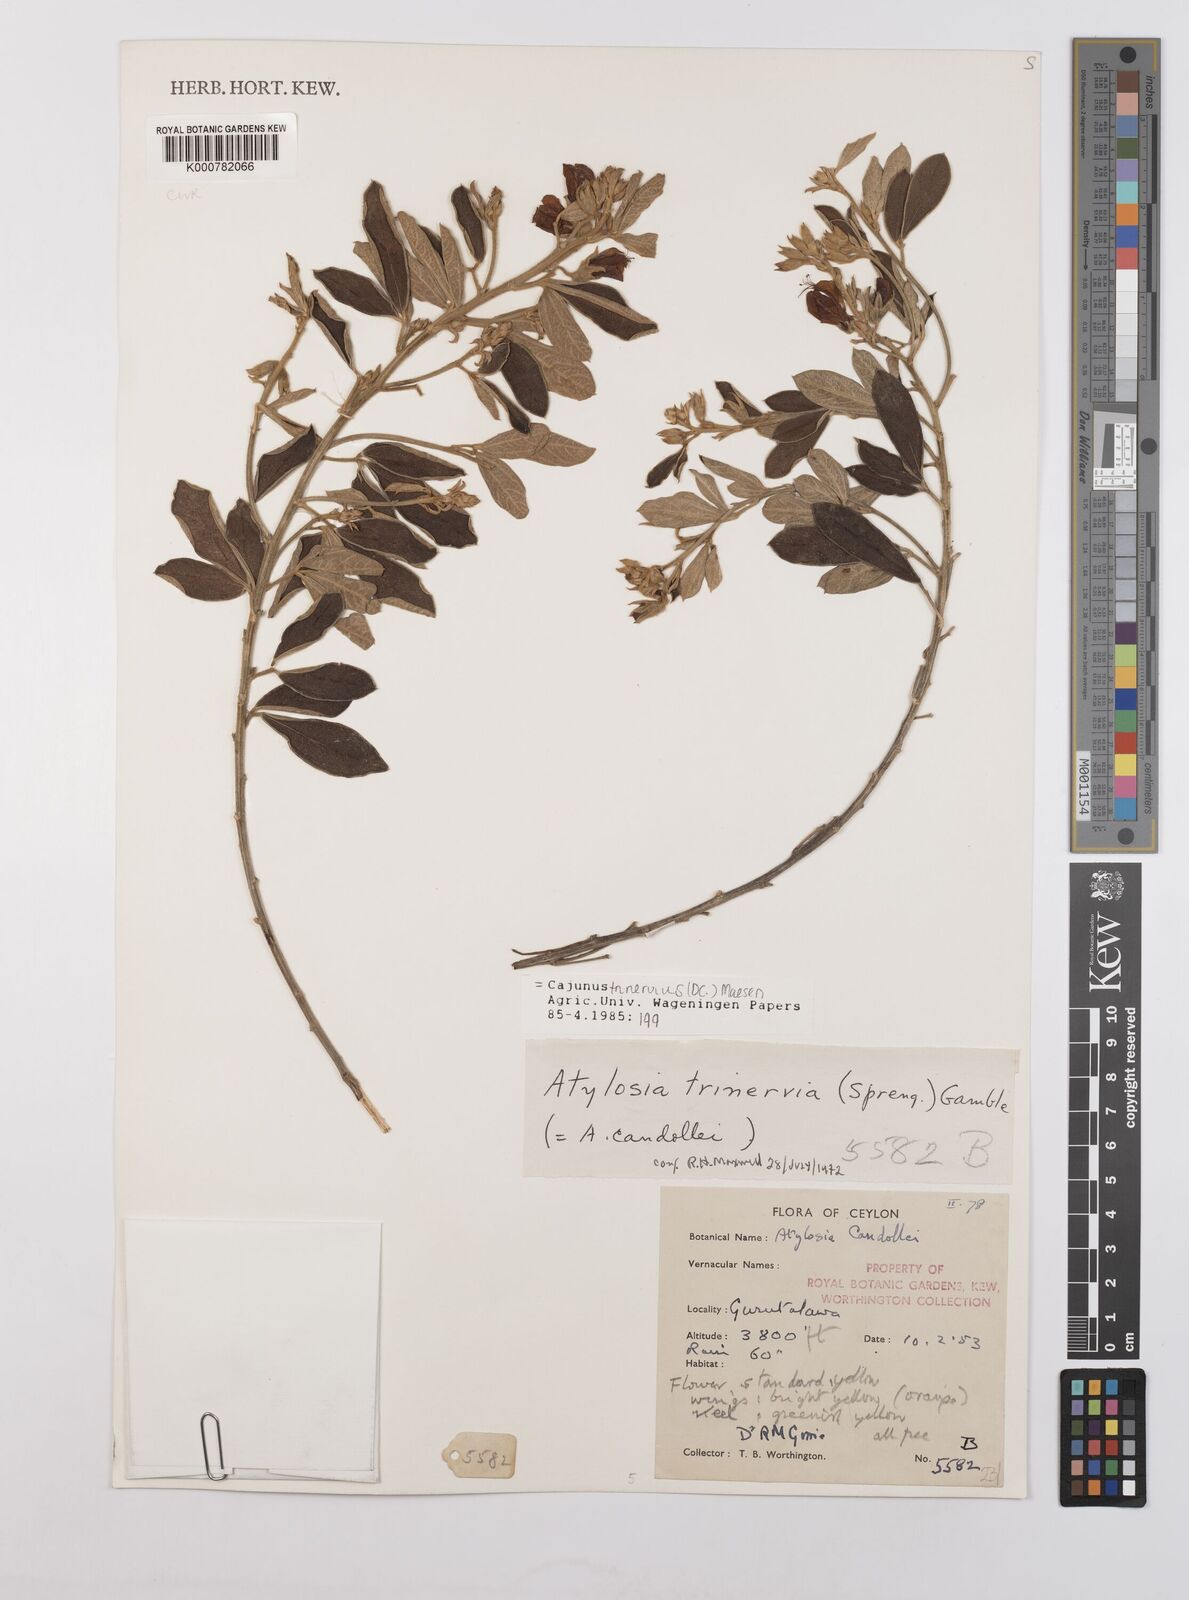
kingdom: Plantae
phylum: Tracheophyta
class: Magnoliopsida
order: Fabales
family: Fabaceae
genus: Cajanus
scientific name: Cajanus trinervius
